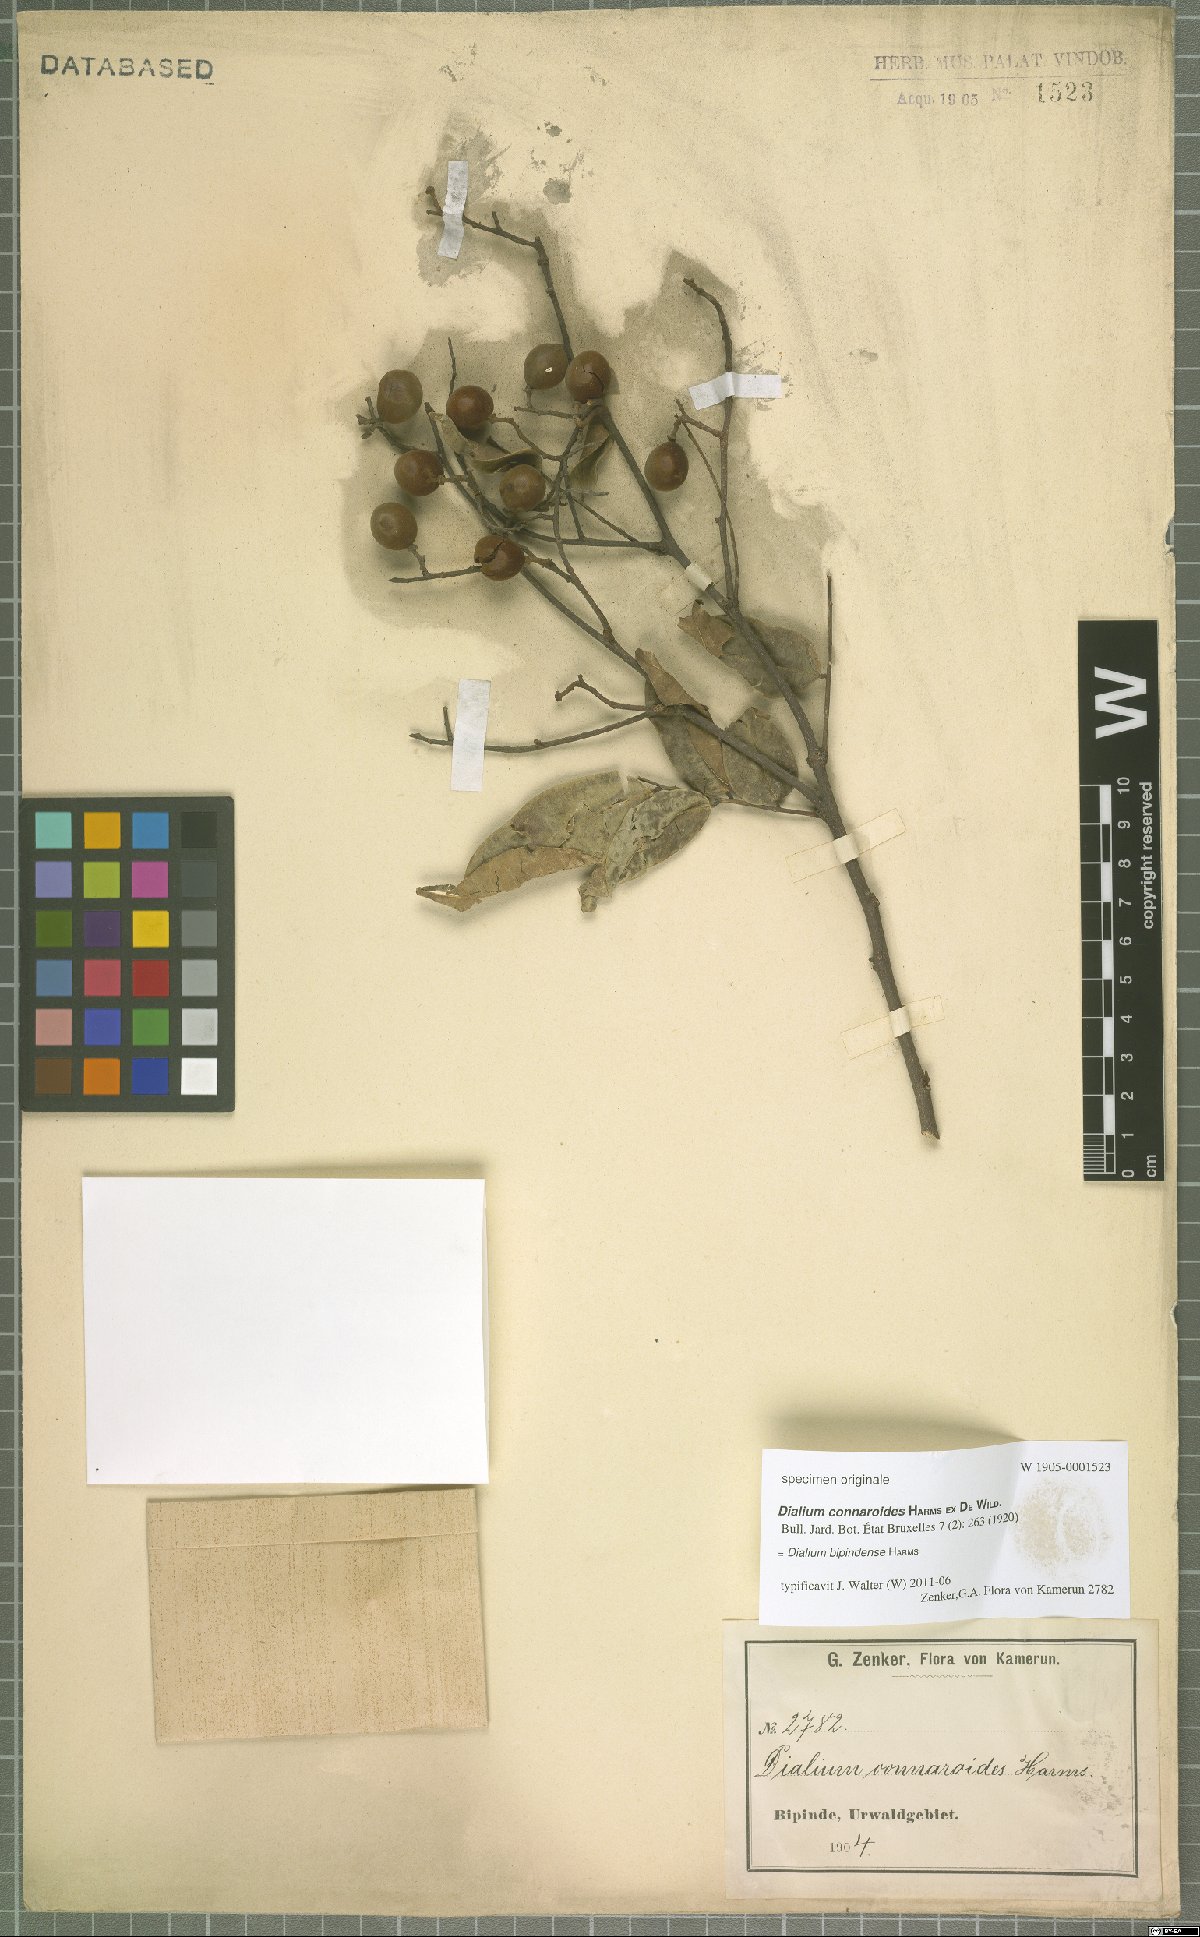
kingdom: Plantae
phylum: Tracheophyta
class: Magnoliopsida
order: Fabales
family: Fabaceae
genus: Dialium
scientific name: Dialium bipindense
